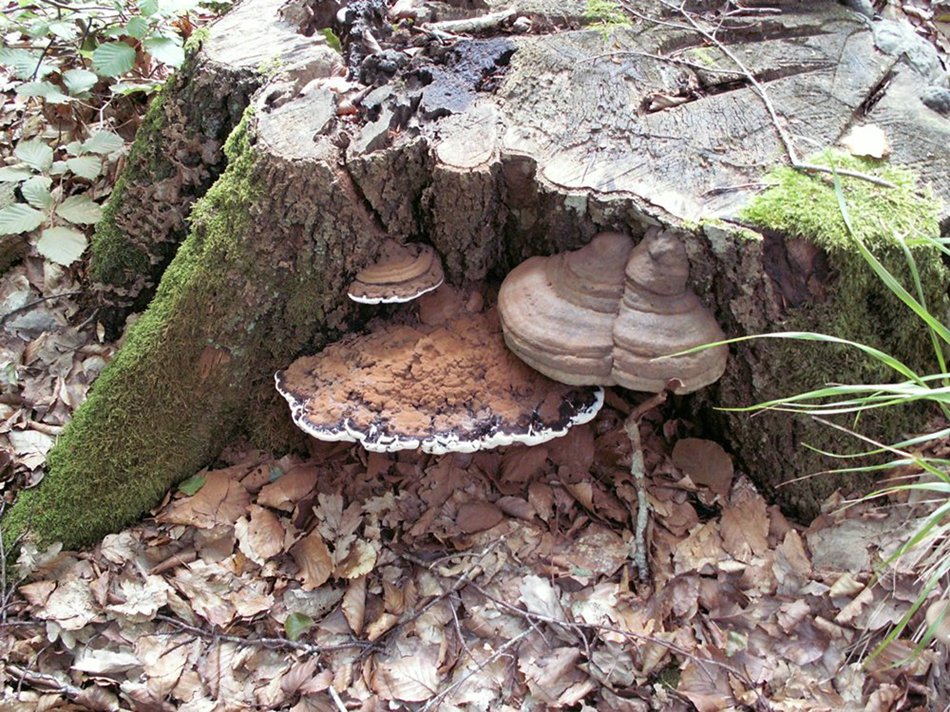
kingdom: Fungi
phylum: Basidiomycota
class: Agaricomycetes
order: Polyporales
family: Polyporaceae
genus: Ganoderma
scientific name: Ganoderma applanatum
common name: flad lakporesvamp
